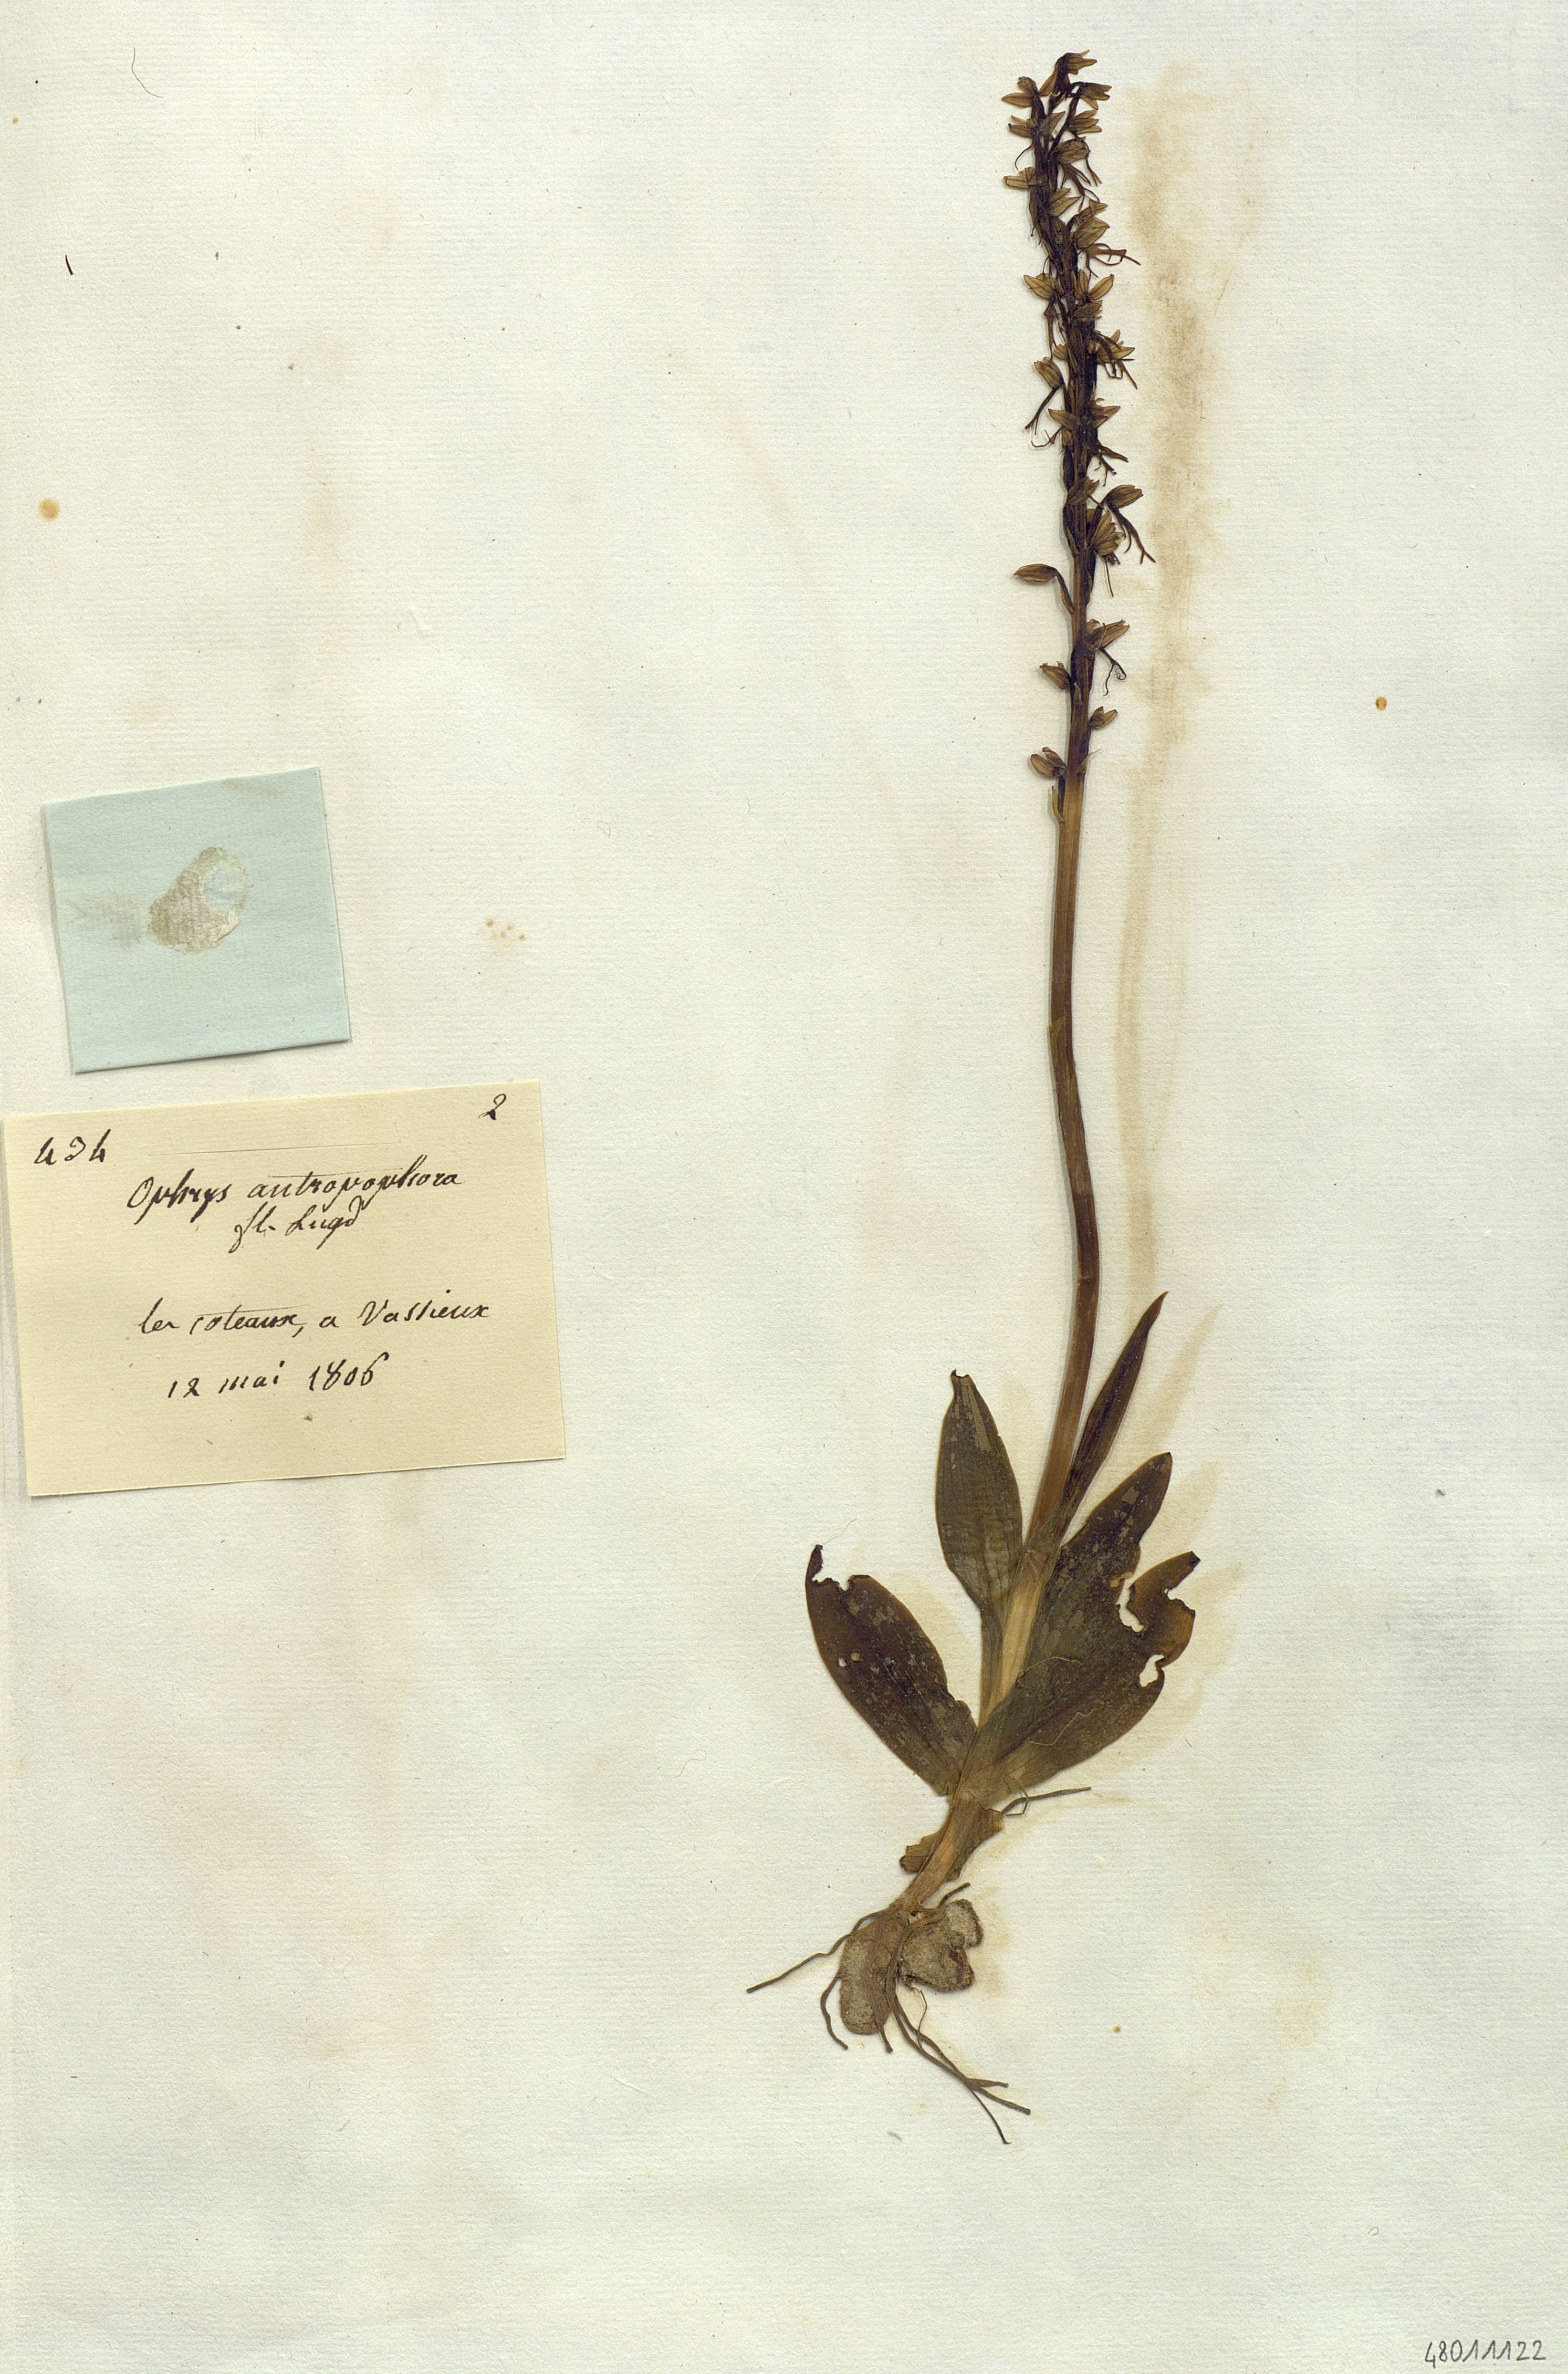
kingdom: Plantae
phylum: Tracheophyta
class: Liliopsida
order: Asparagales
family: Orchidaceae
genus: Ophrys
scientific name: Ophrys anthropophora
